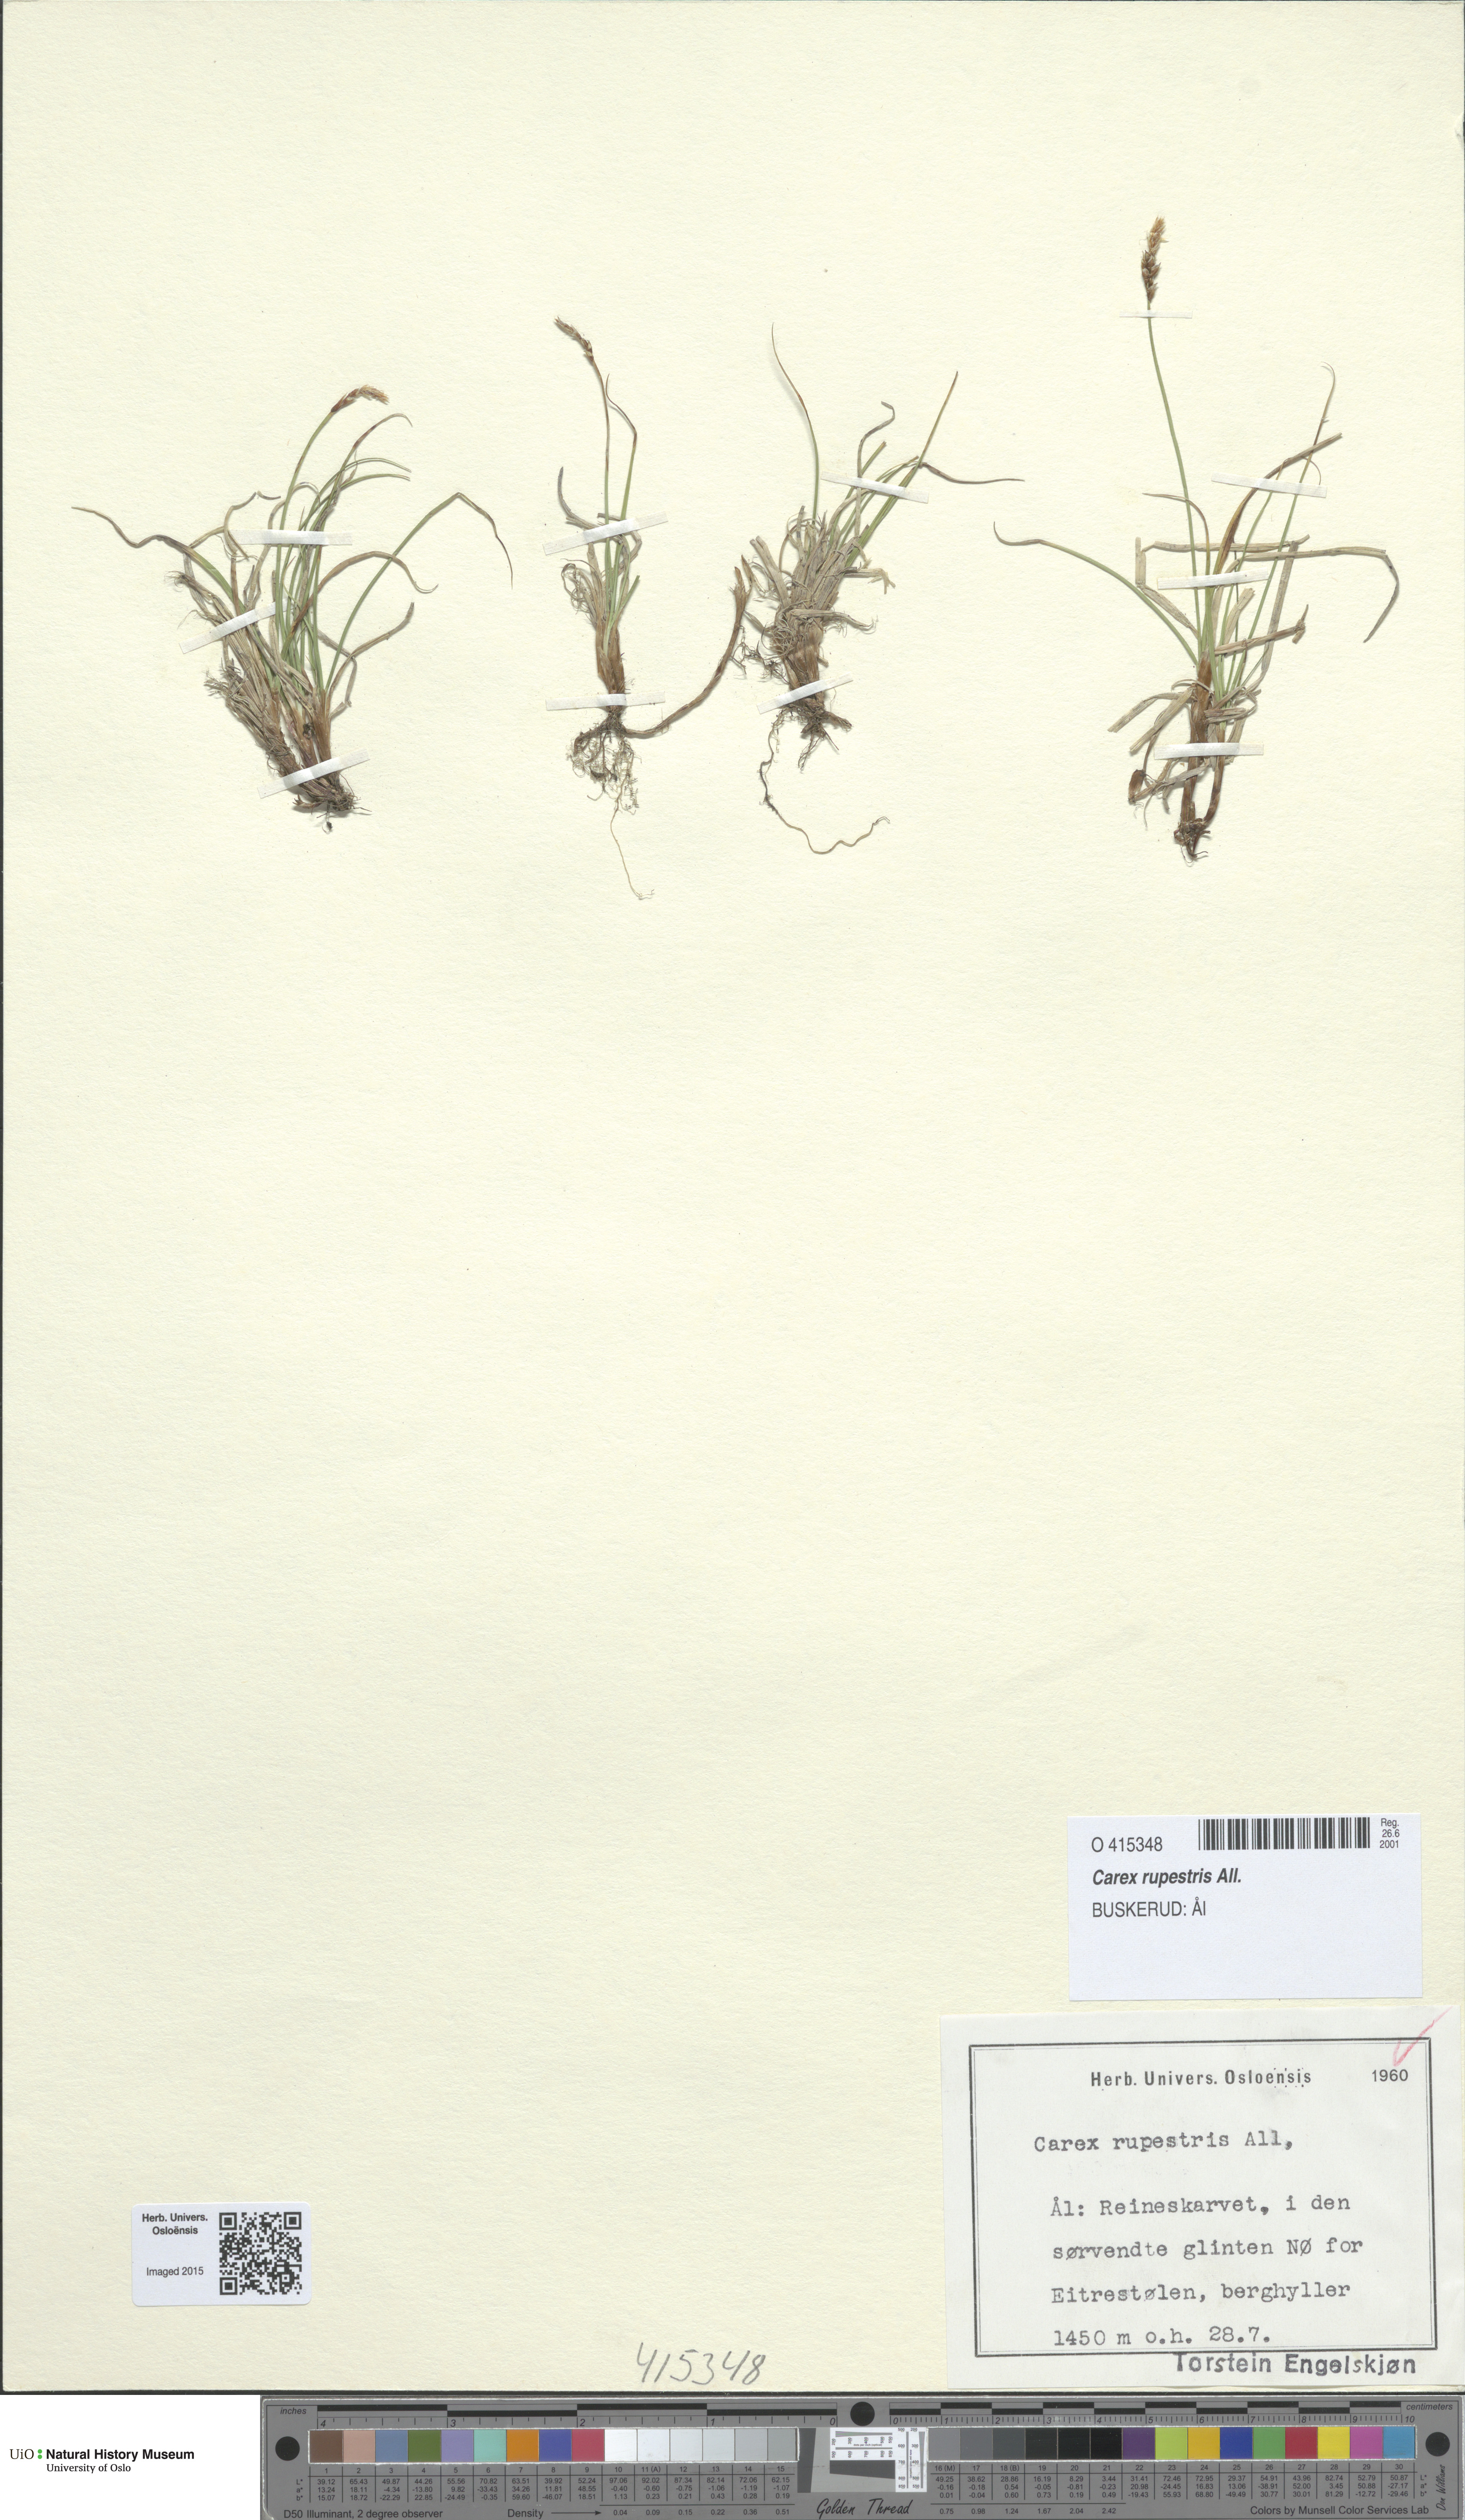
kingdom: Plantae
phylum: Tracheophyta
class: Liliopsida
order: Poales
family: Cyperaceae
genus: Carex
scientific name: Carex rupestris
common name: Rock sedge
